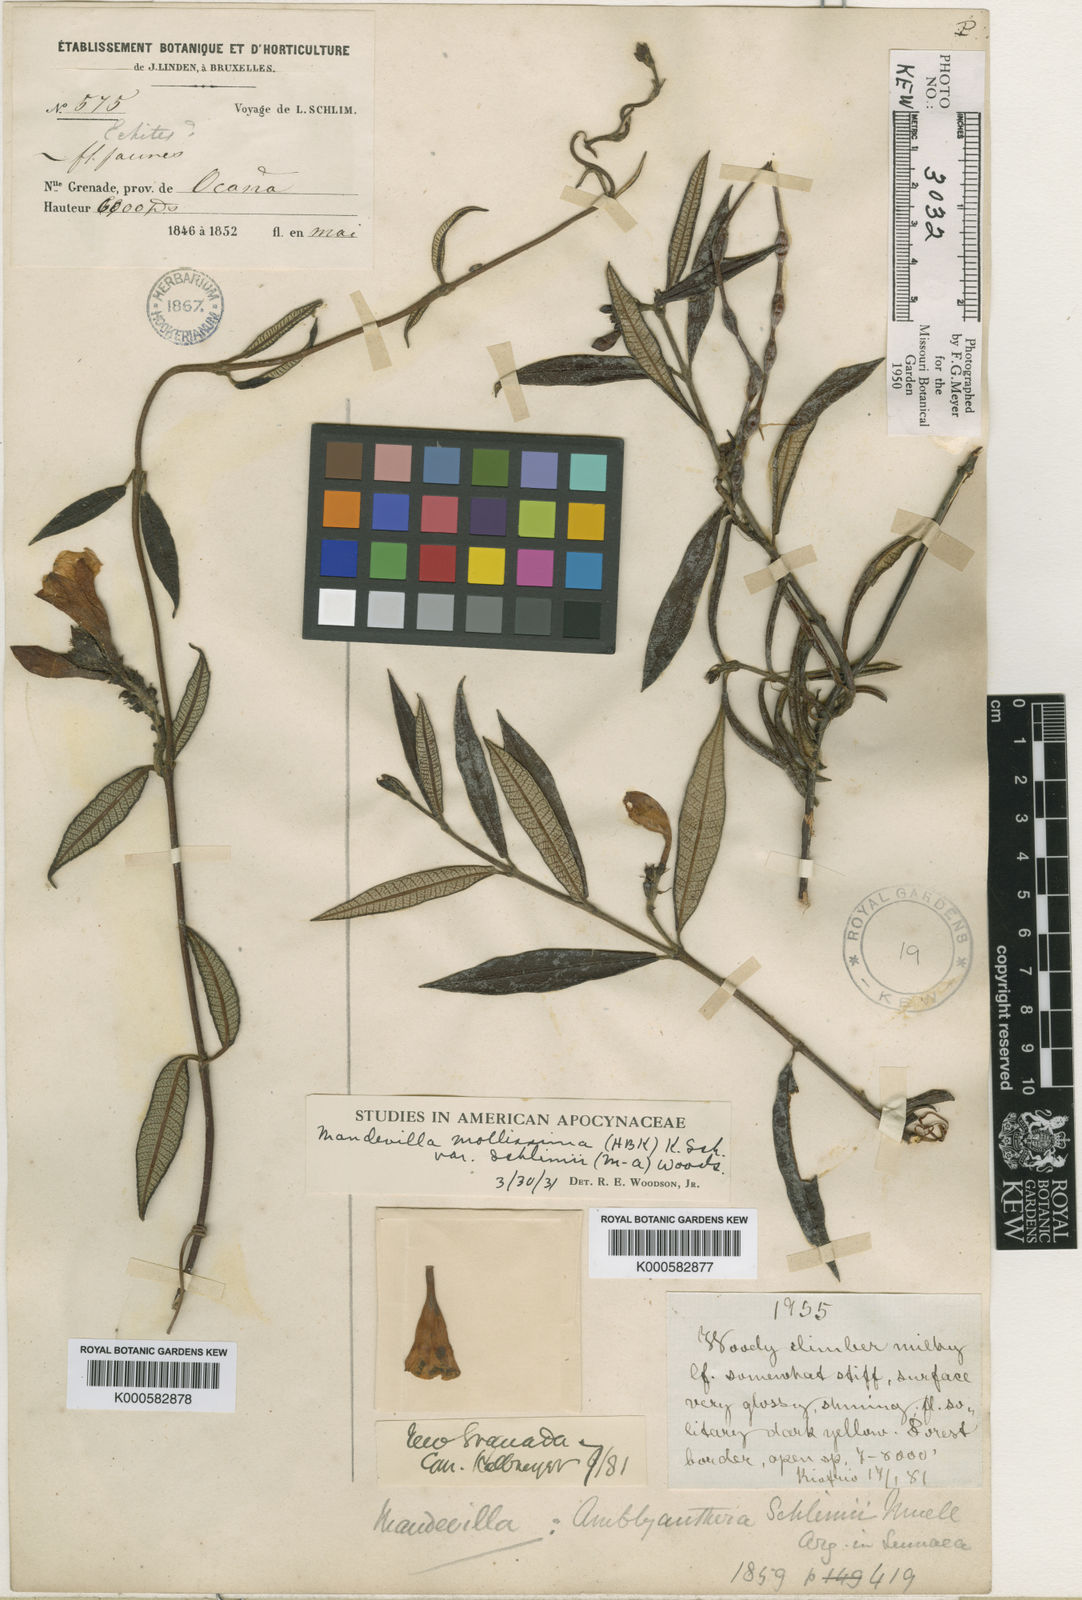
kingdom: Plantae
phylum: Tracheophyta
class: Magnoliopsida
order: Gentianales
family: Apocynaceae
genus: Mandevilla
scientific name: Mandevilla
